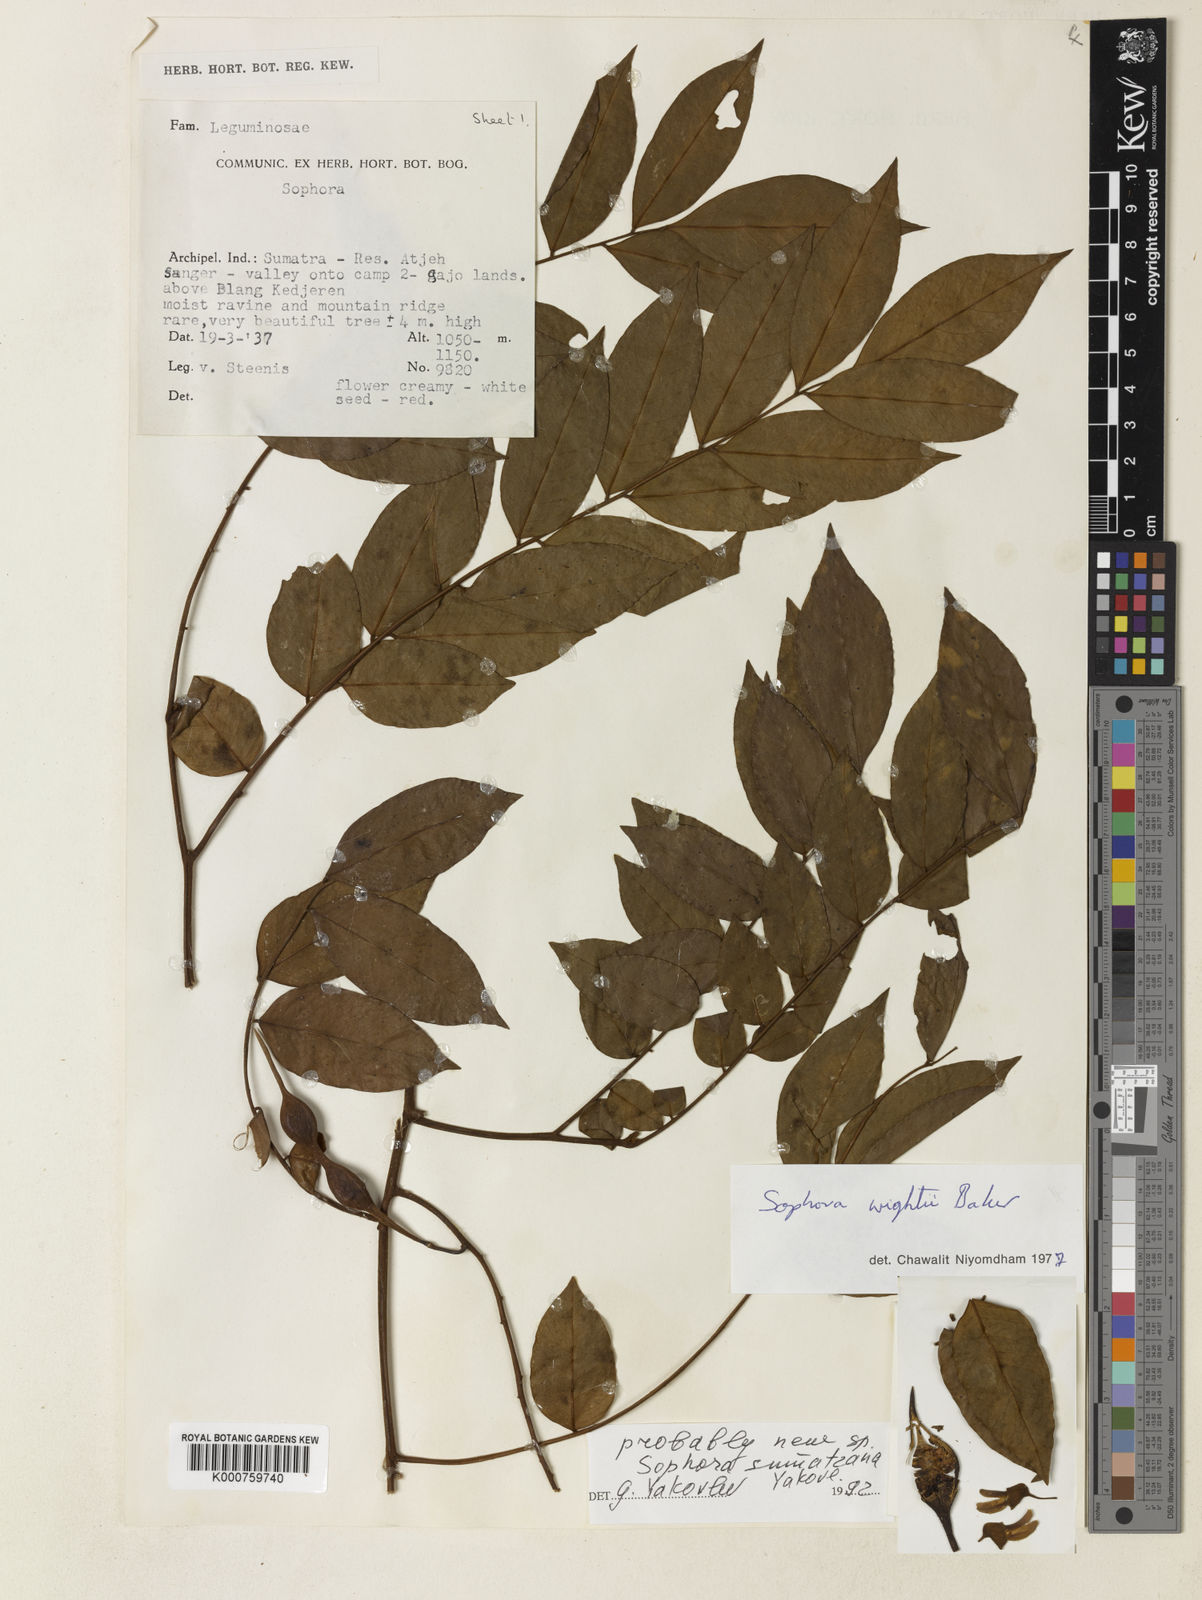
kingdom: Plantae
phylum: Tracheophyta
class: Magnoliopsida
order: Fabales
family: Fabaceae
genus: Sophora
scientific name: Sophora tomentosa
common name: Yellow necklacepod
